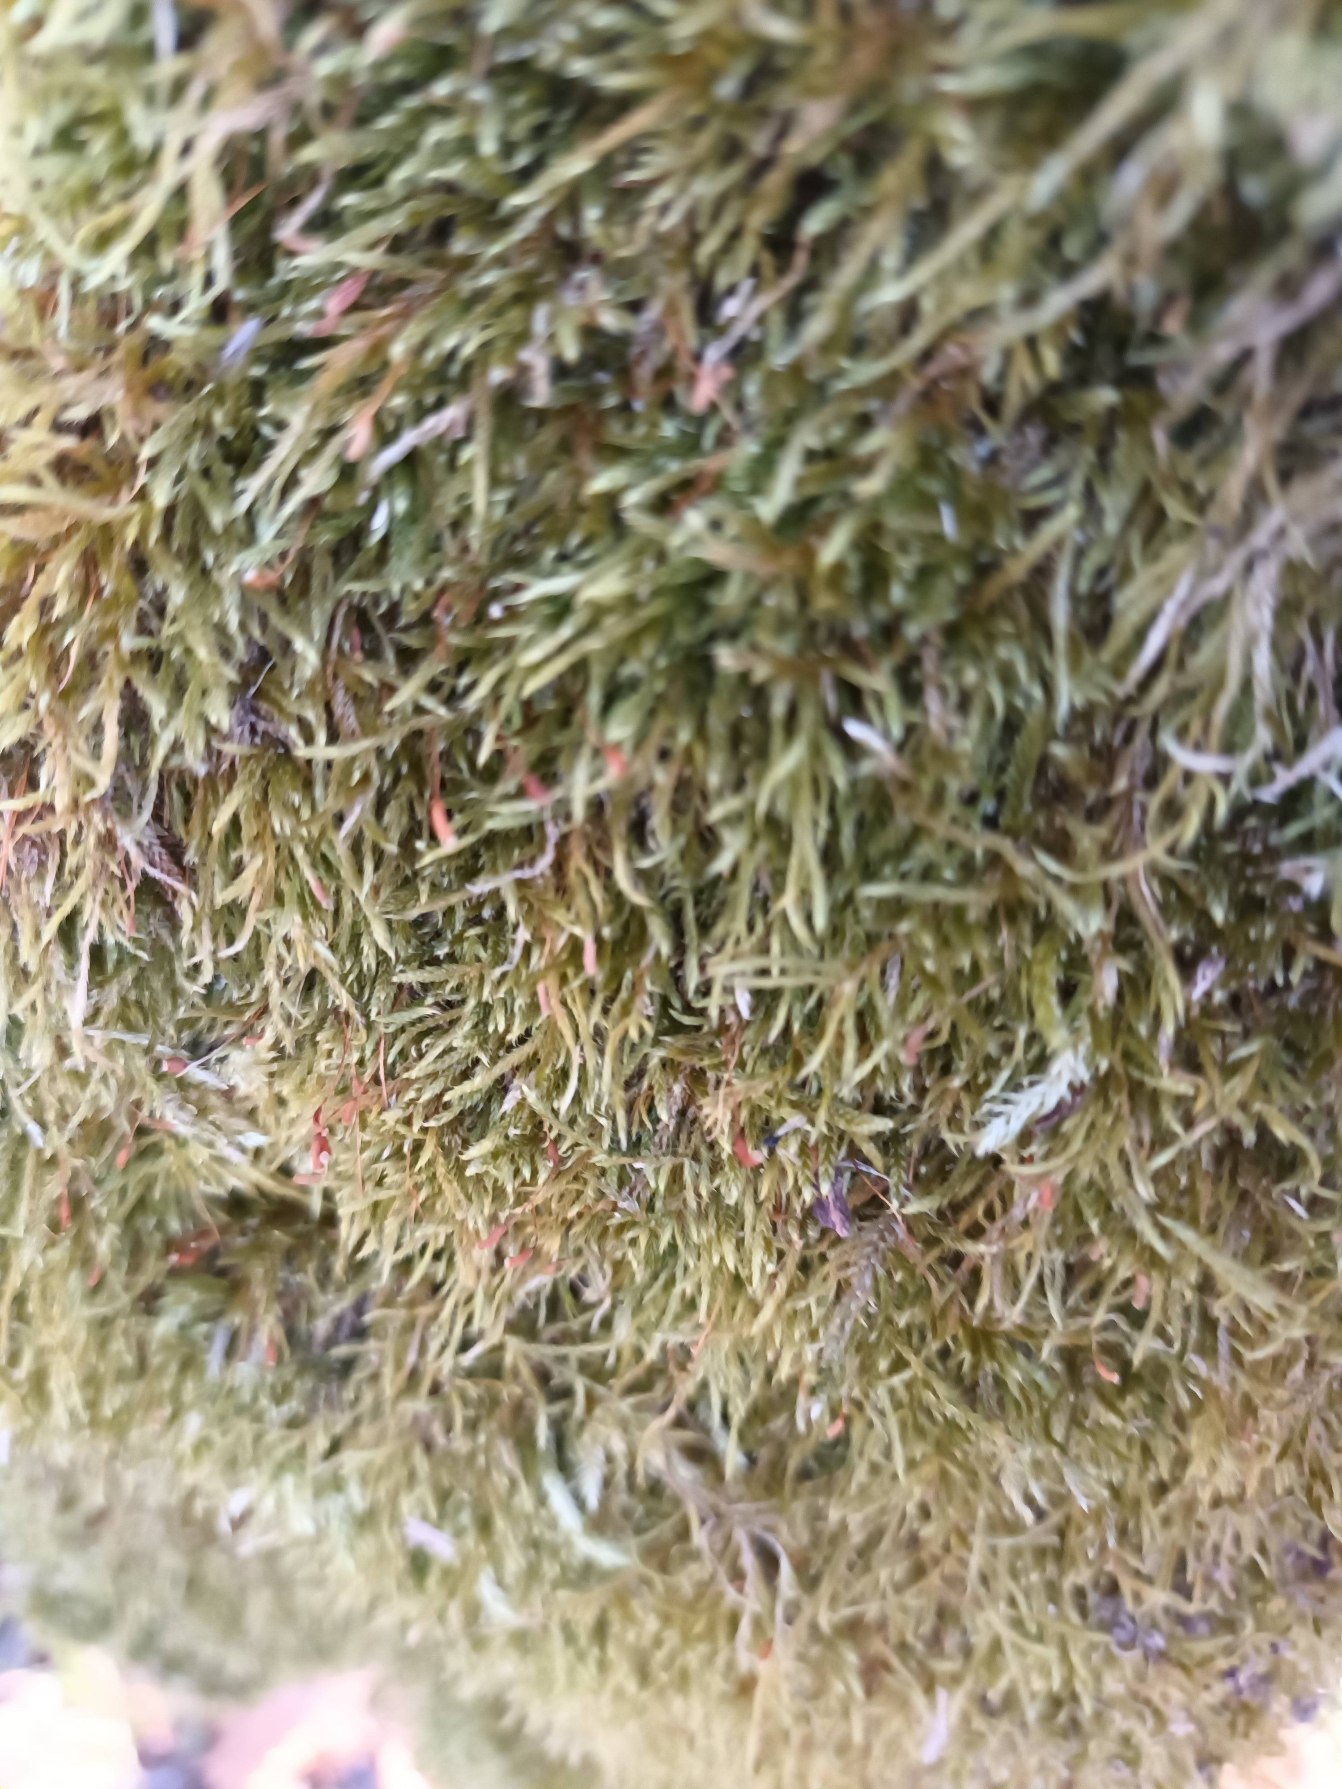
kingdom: Plantae
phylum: Bryophyta
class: Bryopsida
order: Hypnales
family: Hypnaceae
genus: Hypnum
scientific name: Hypnum
